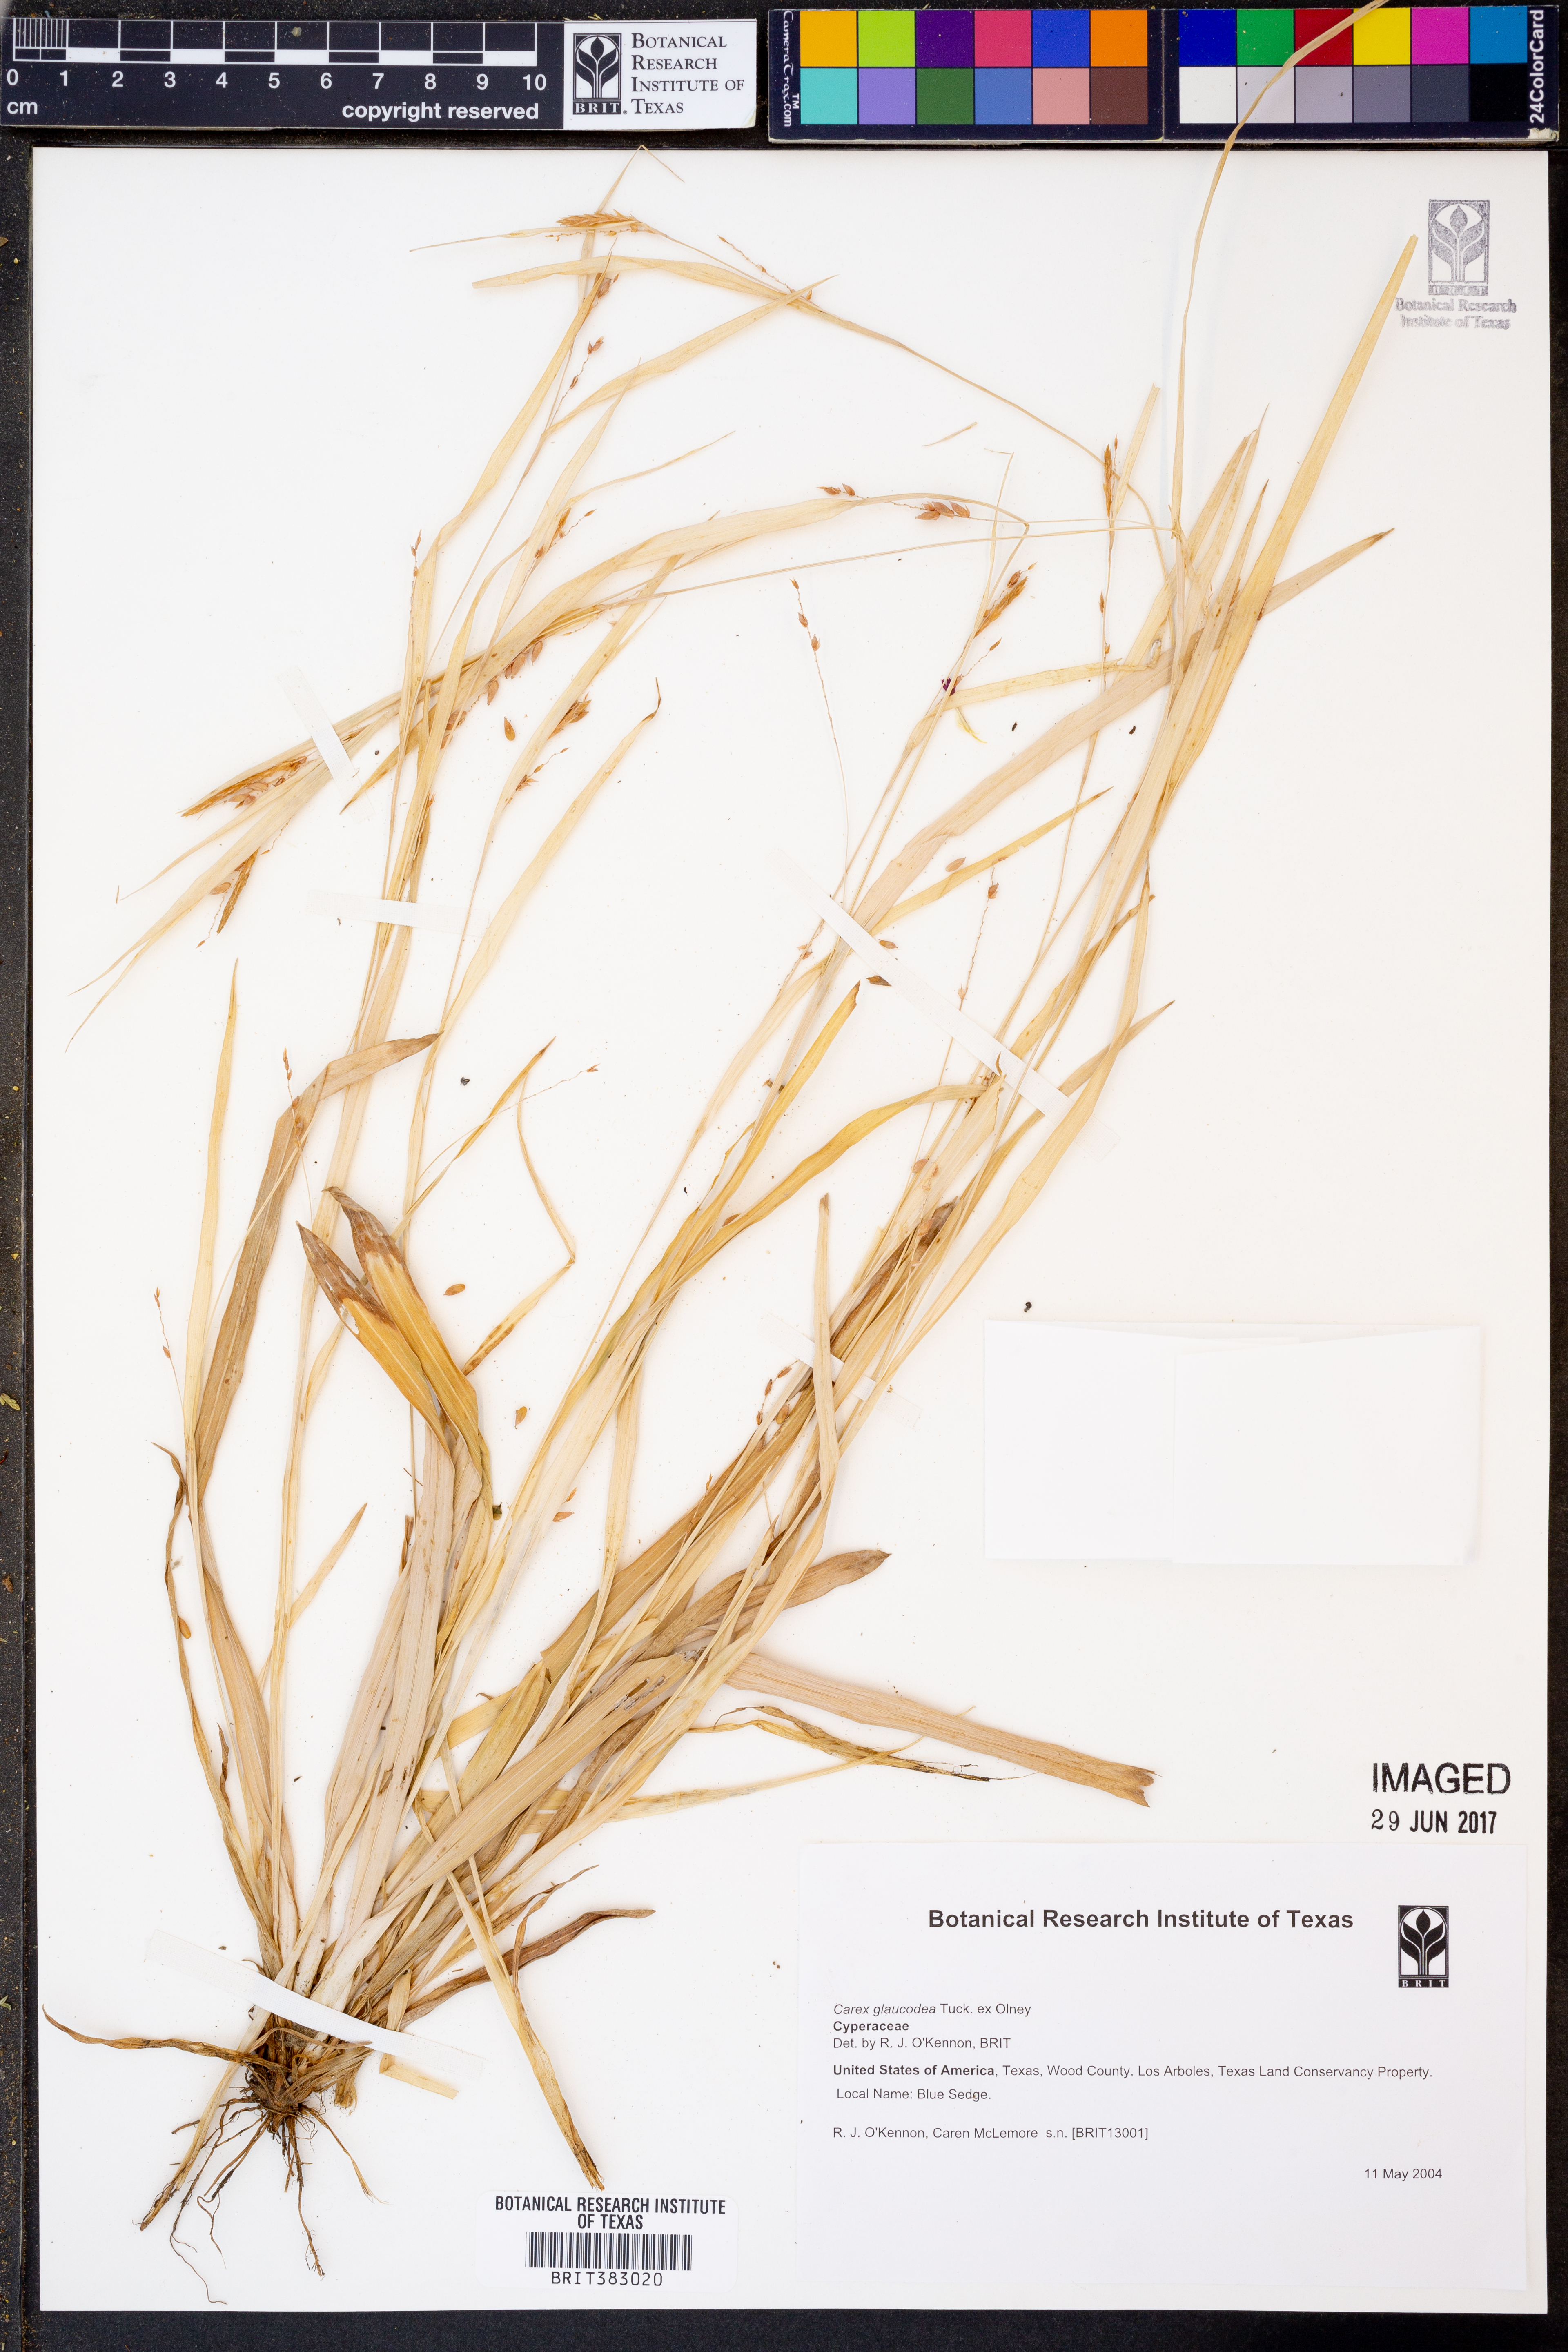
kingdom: Plantae
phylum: Tracheophyta
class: Liliopsida
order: Poales
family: Cyperaceae
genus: Carex
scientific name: Carex glaucodea
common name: Blue sedge
